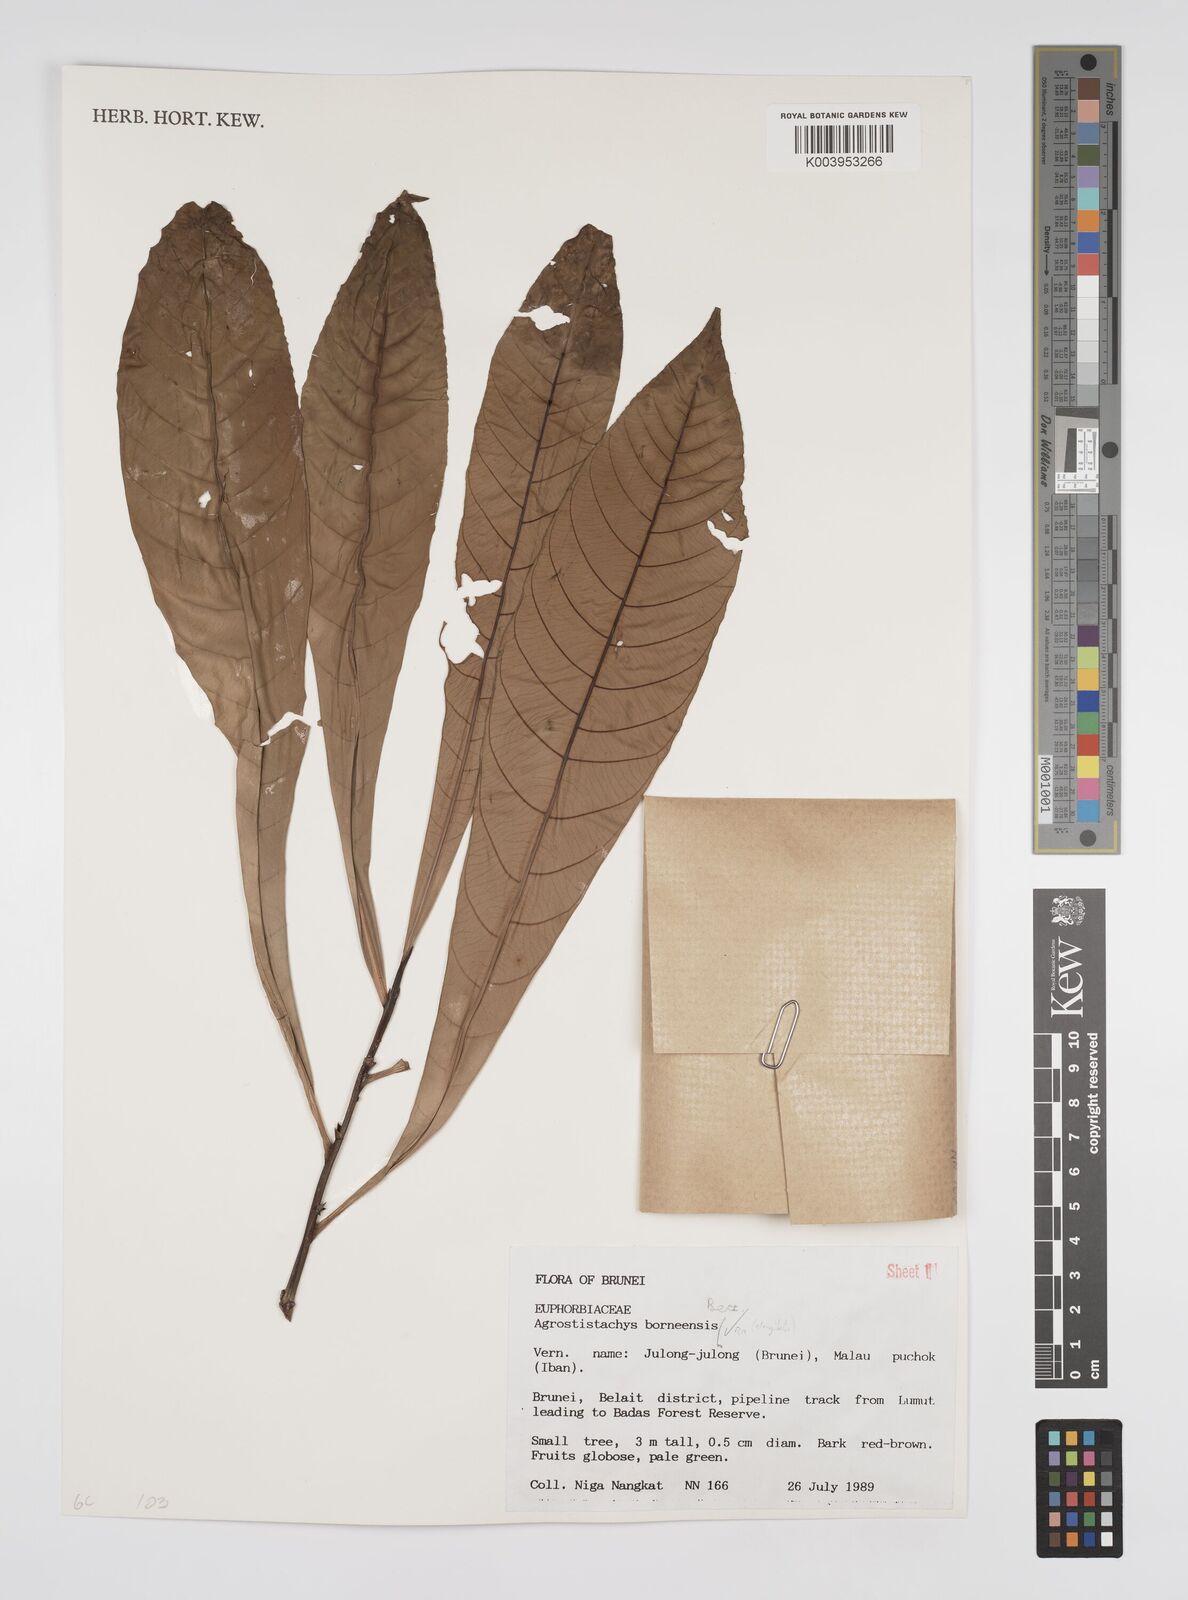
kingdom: Plantae
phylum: Tracheophyta
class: Magnoliopsida
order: Malpighiales
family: Euphorbiaceae
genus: Agrostistachys
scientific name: Agrostistachys borneensis
